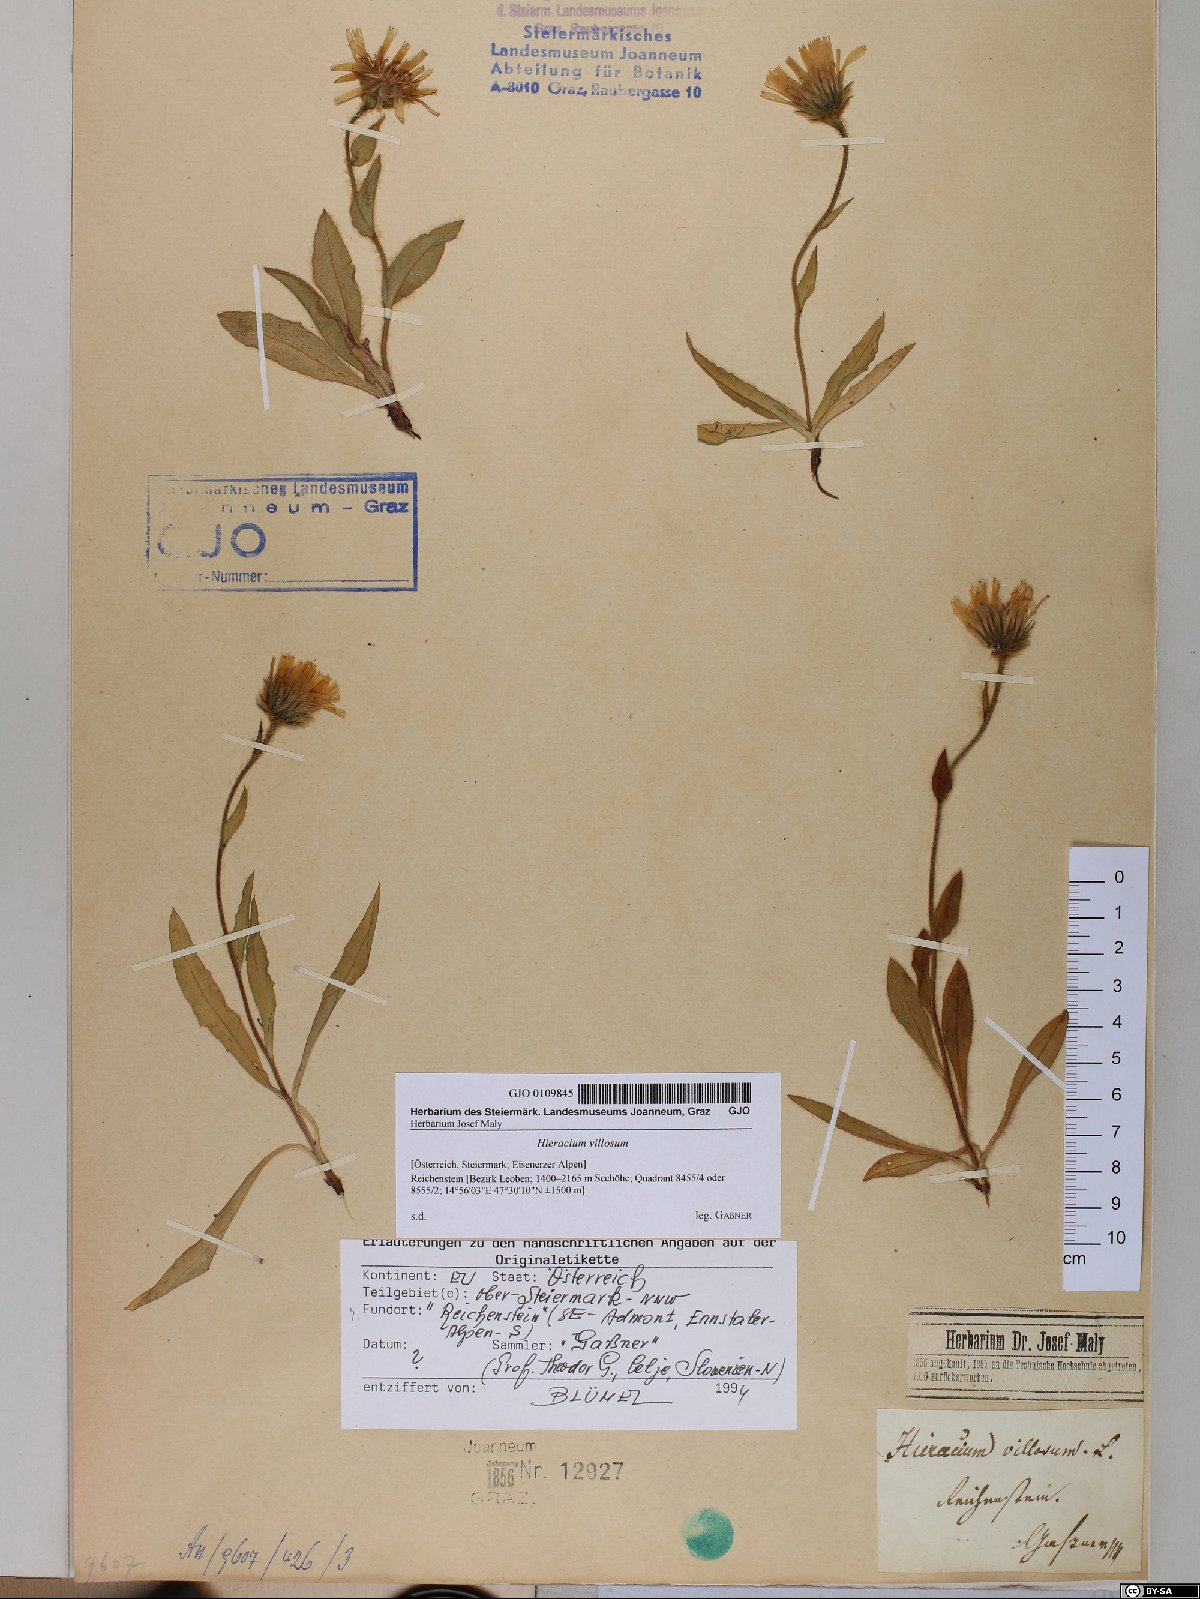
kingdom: Plantae
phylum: Tracheophyta
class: Magnoliopsida
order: Asterales
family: Asteraceae
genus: Hieracium
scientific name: Hieracium villosum
